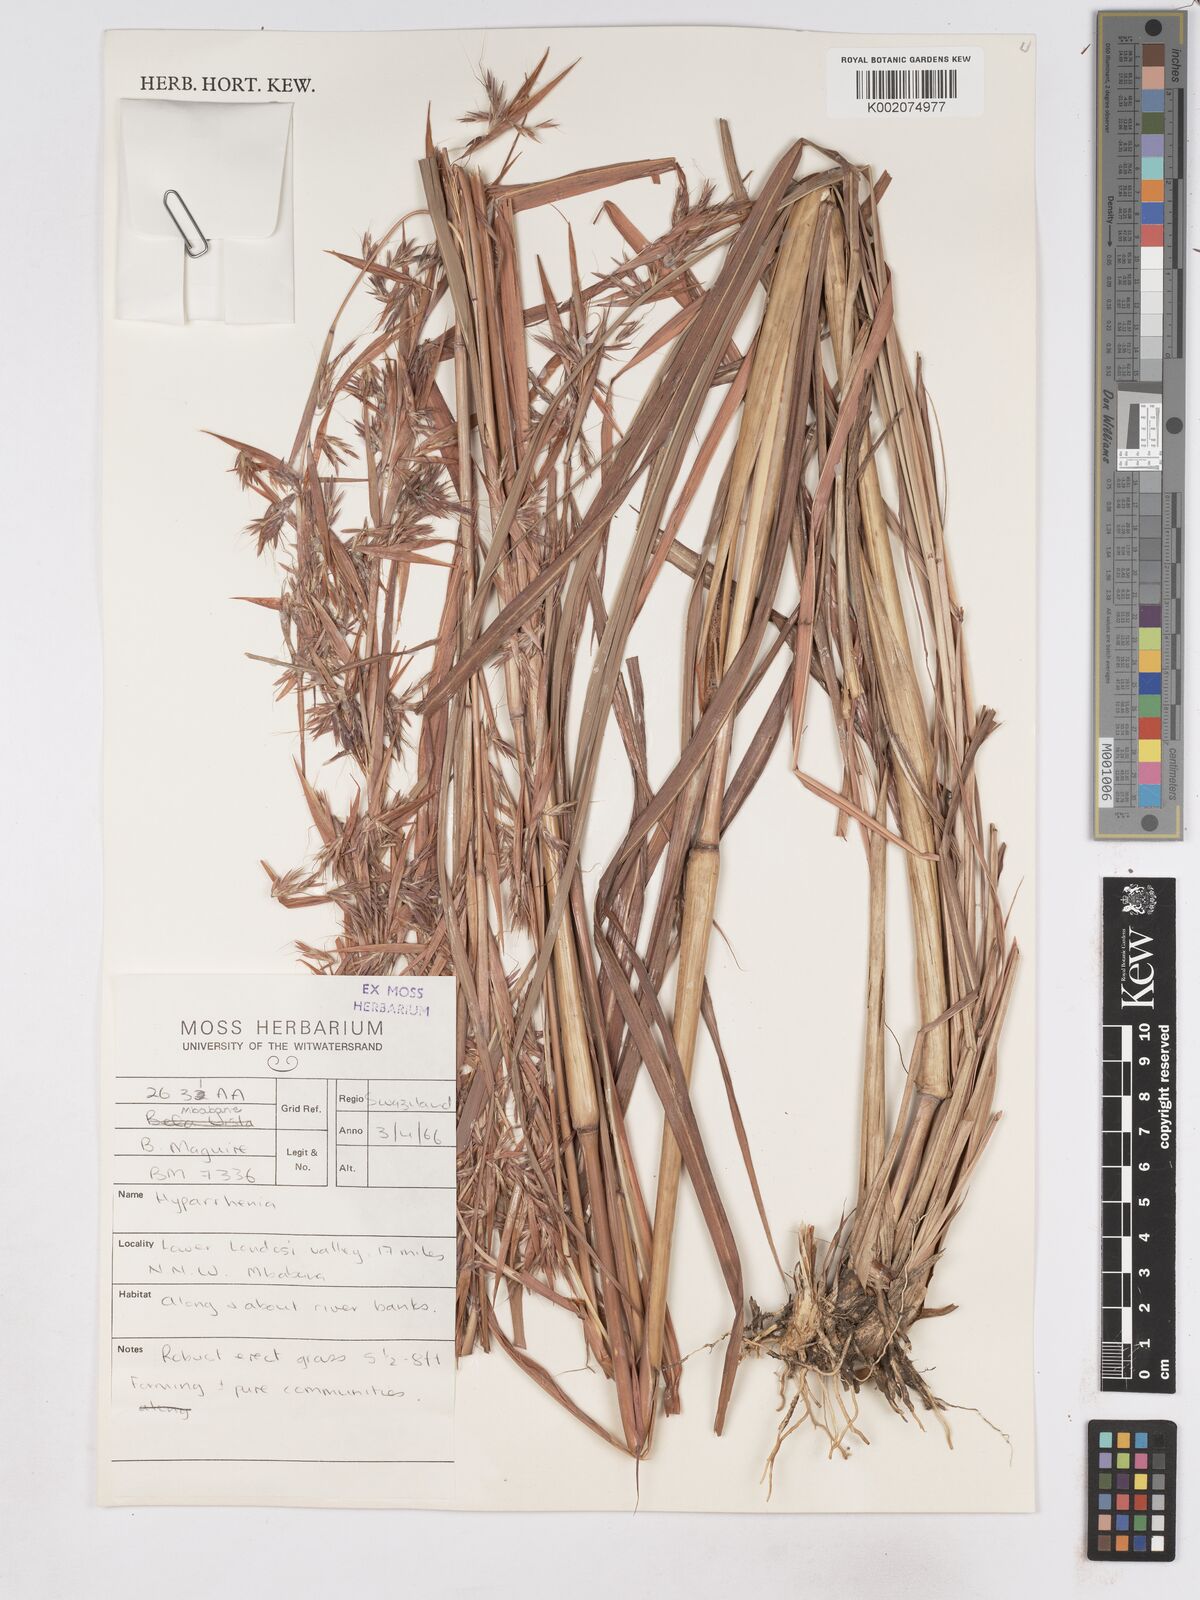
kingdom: Plantae
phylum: Tracheophyta
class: Liliopsida
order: Poales
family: Poaceae
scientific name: Poaceae
